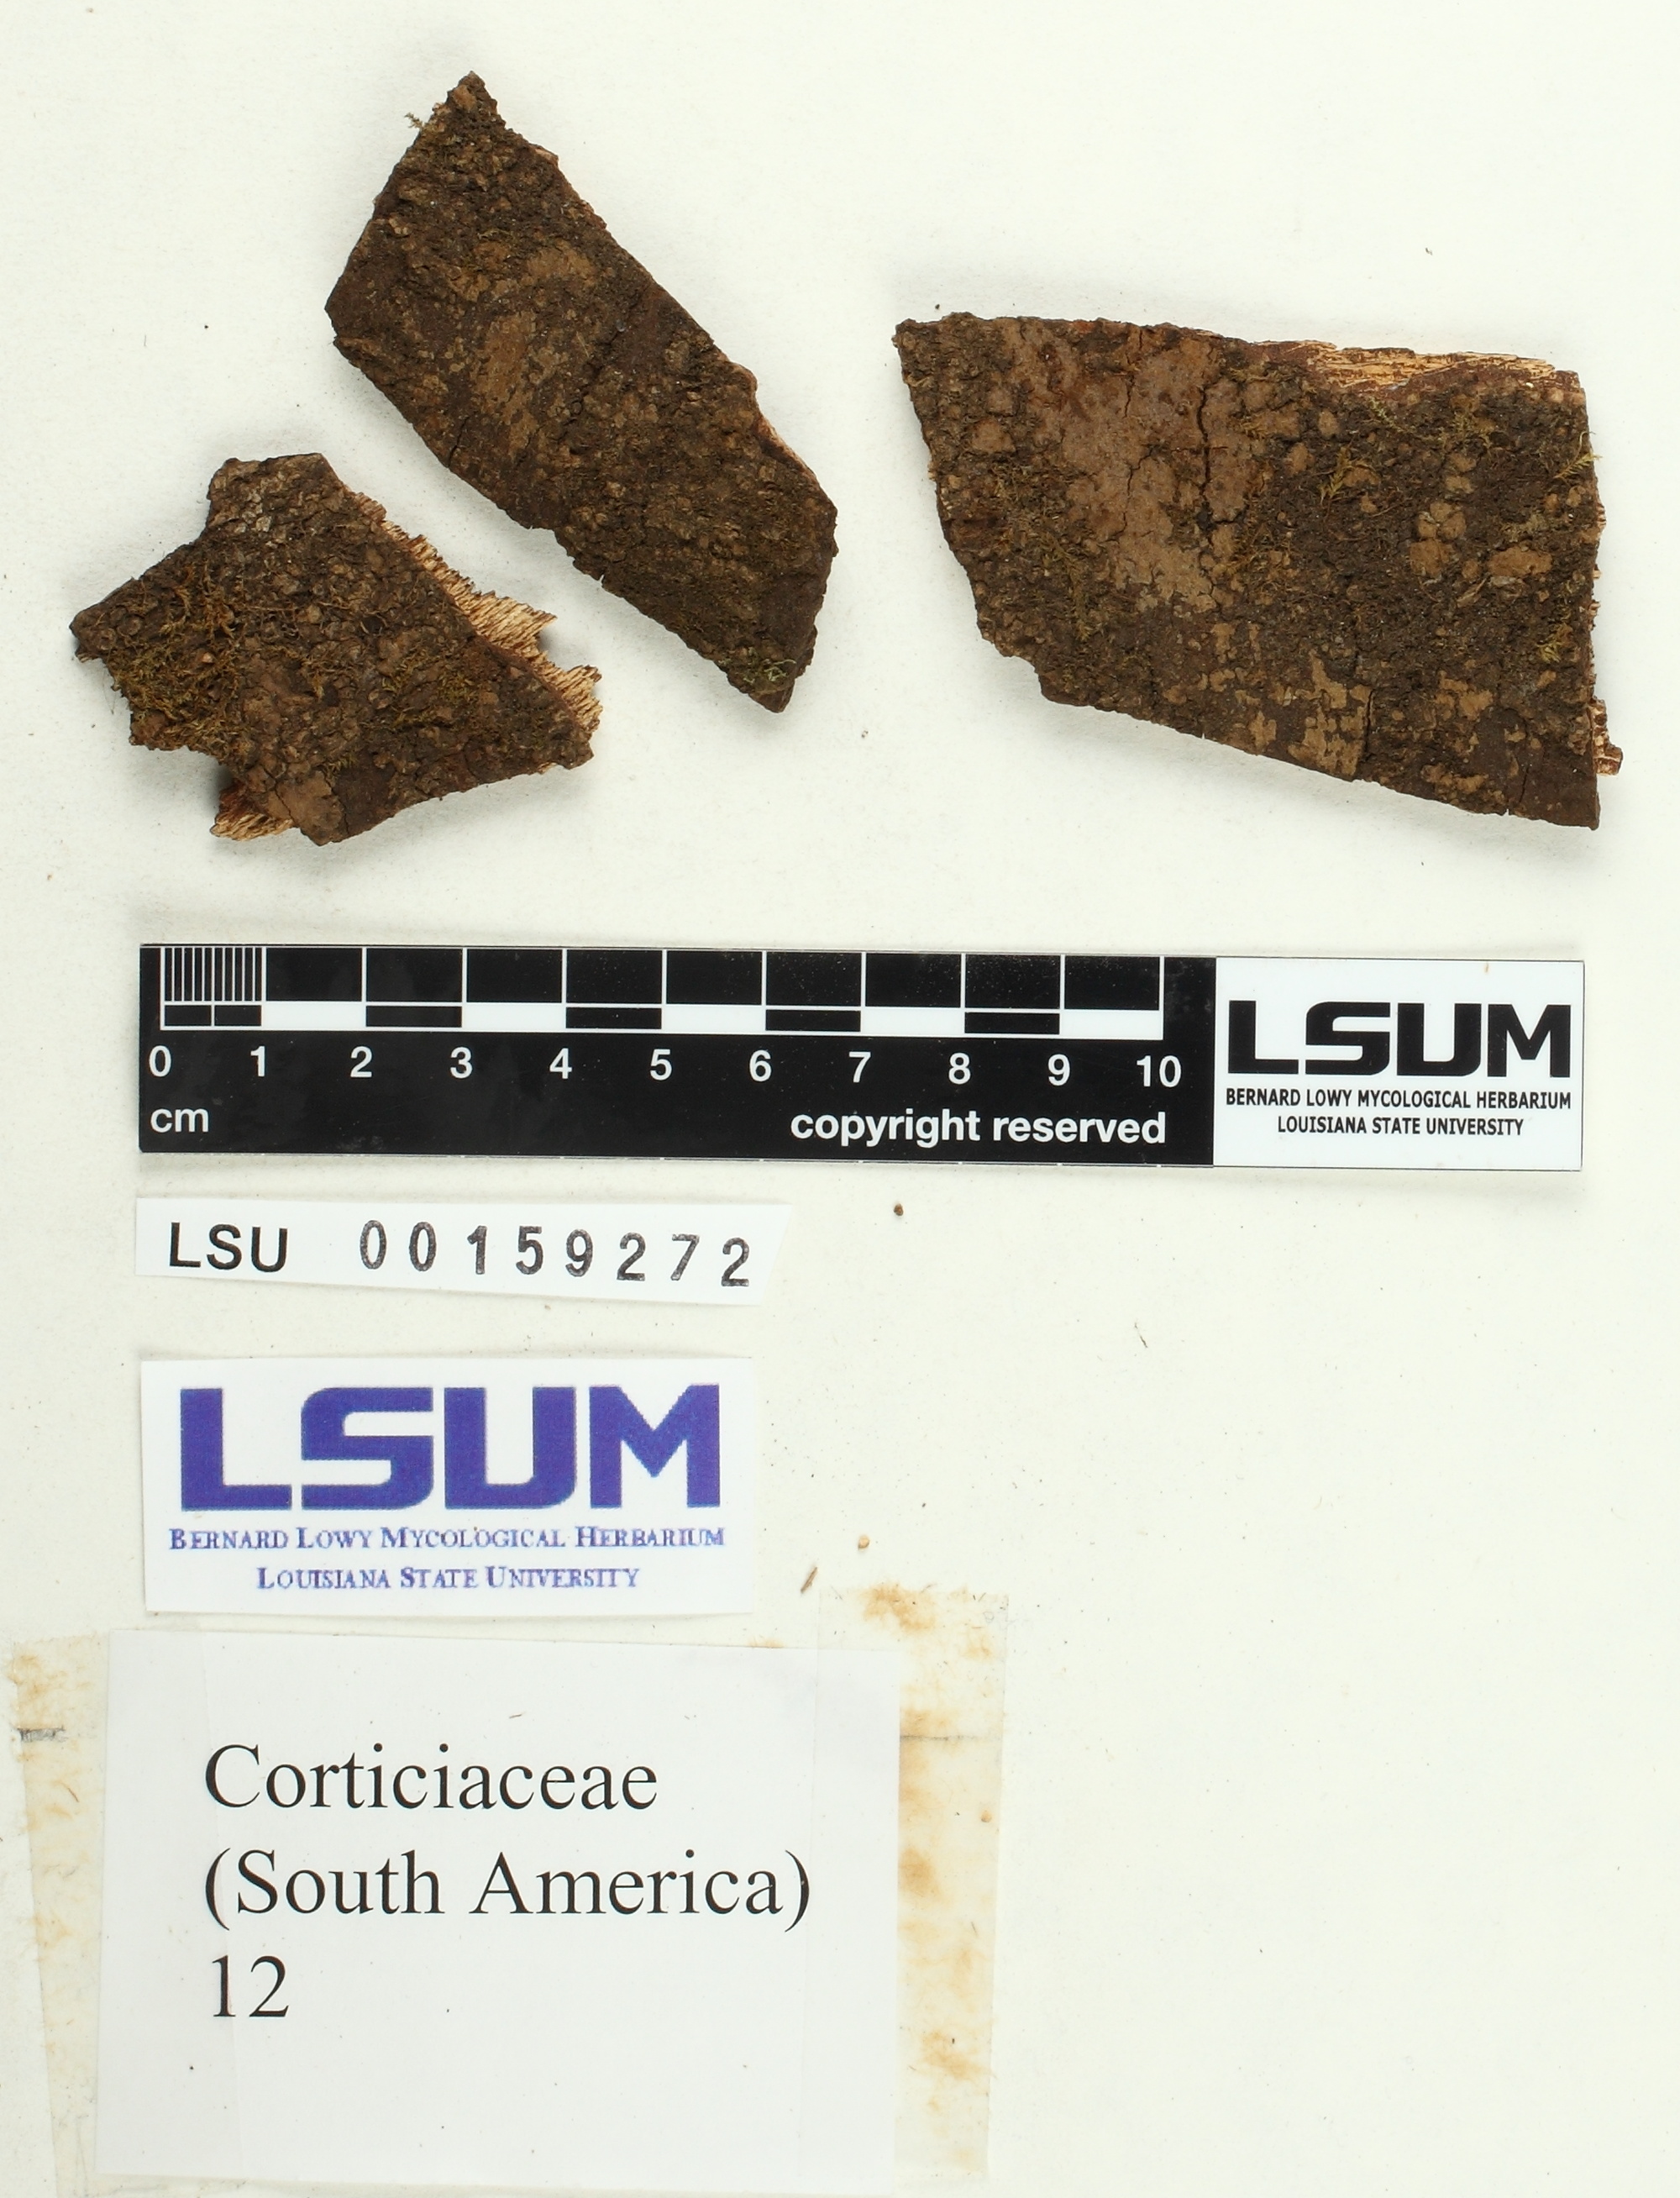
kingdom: Fungi
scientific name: Fungi
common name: Fungi
